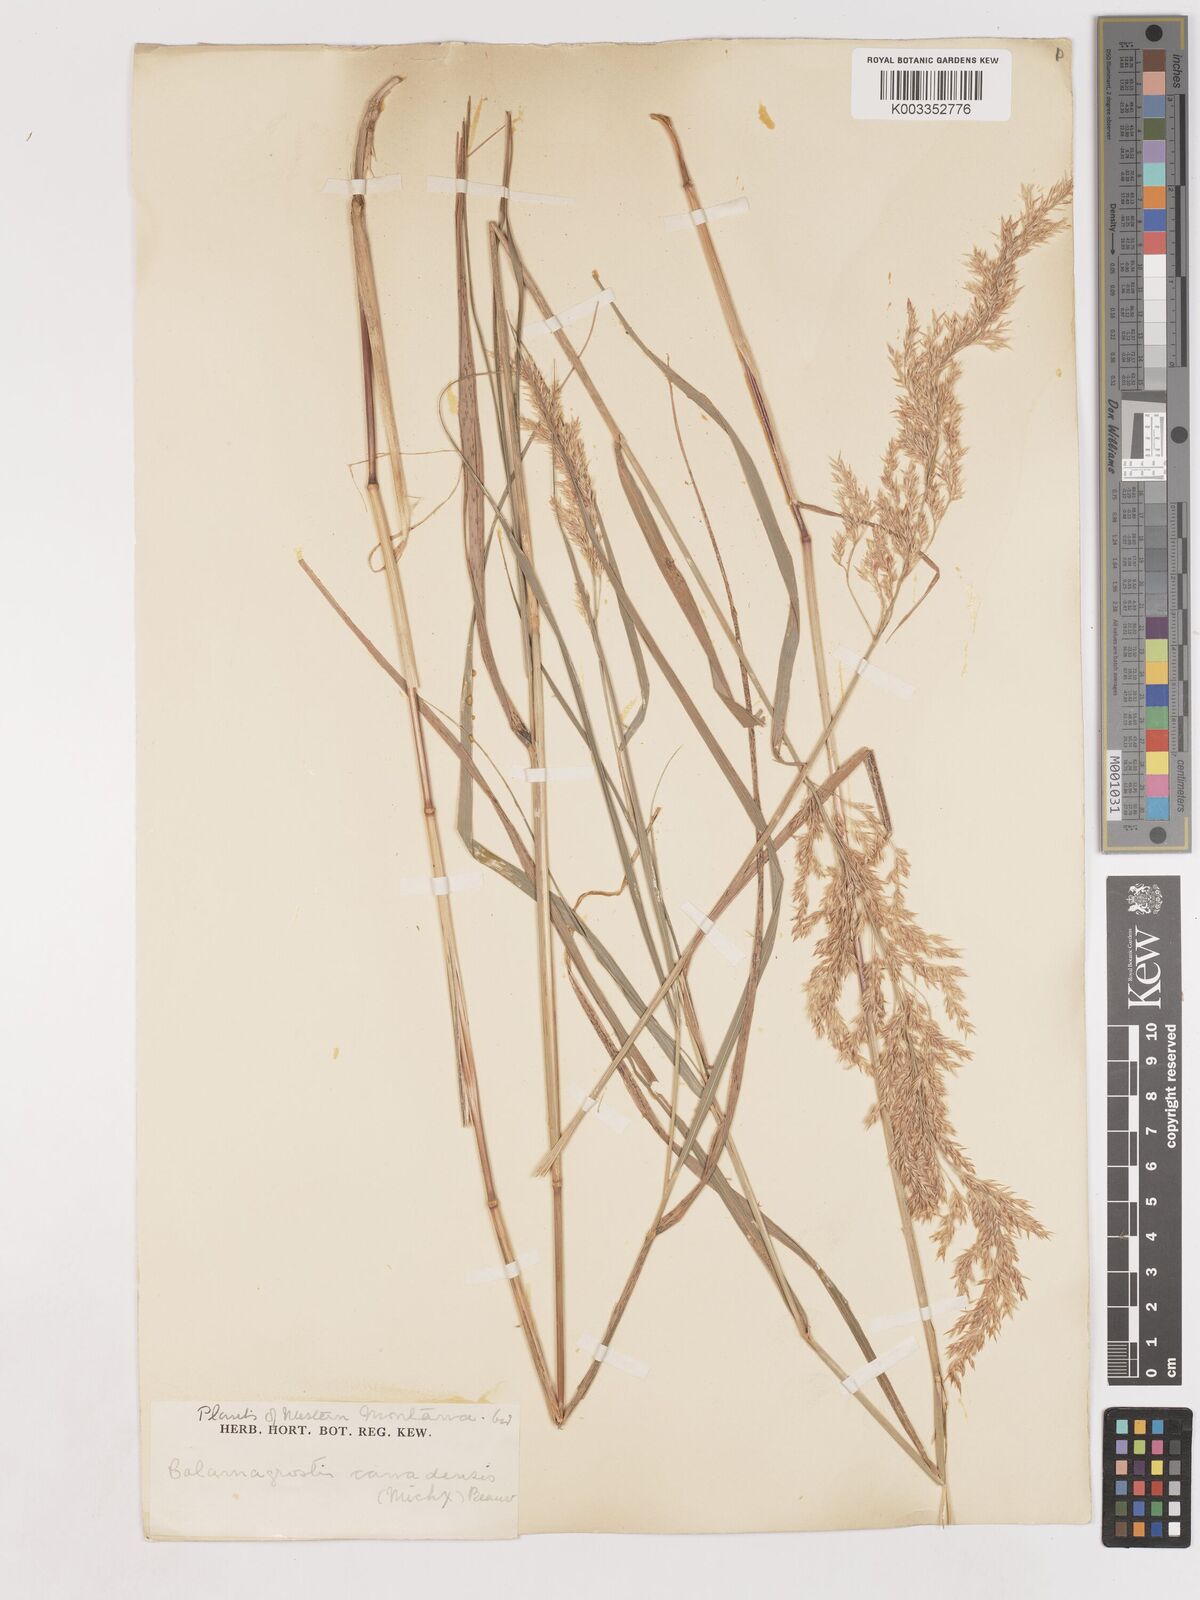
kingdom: Plantae
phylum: Tracheophyta
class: Liliopsida
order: Poales
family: Poaceae
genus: Calamagrostis
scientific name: Calamagrostis canadensis
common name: Canada bluejoint
